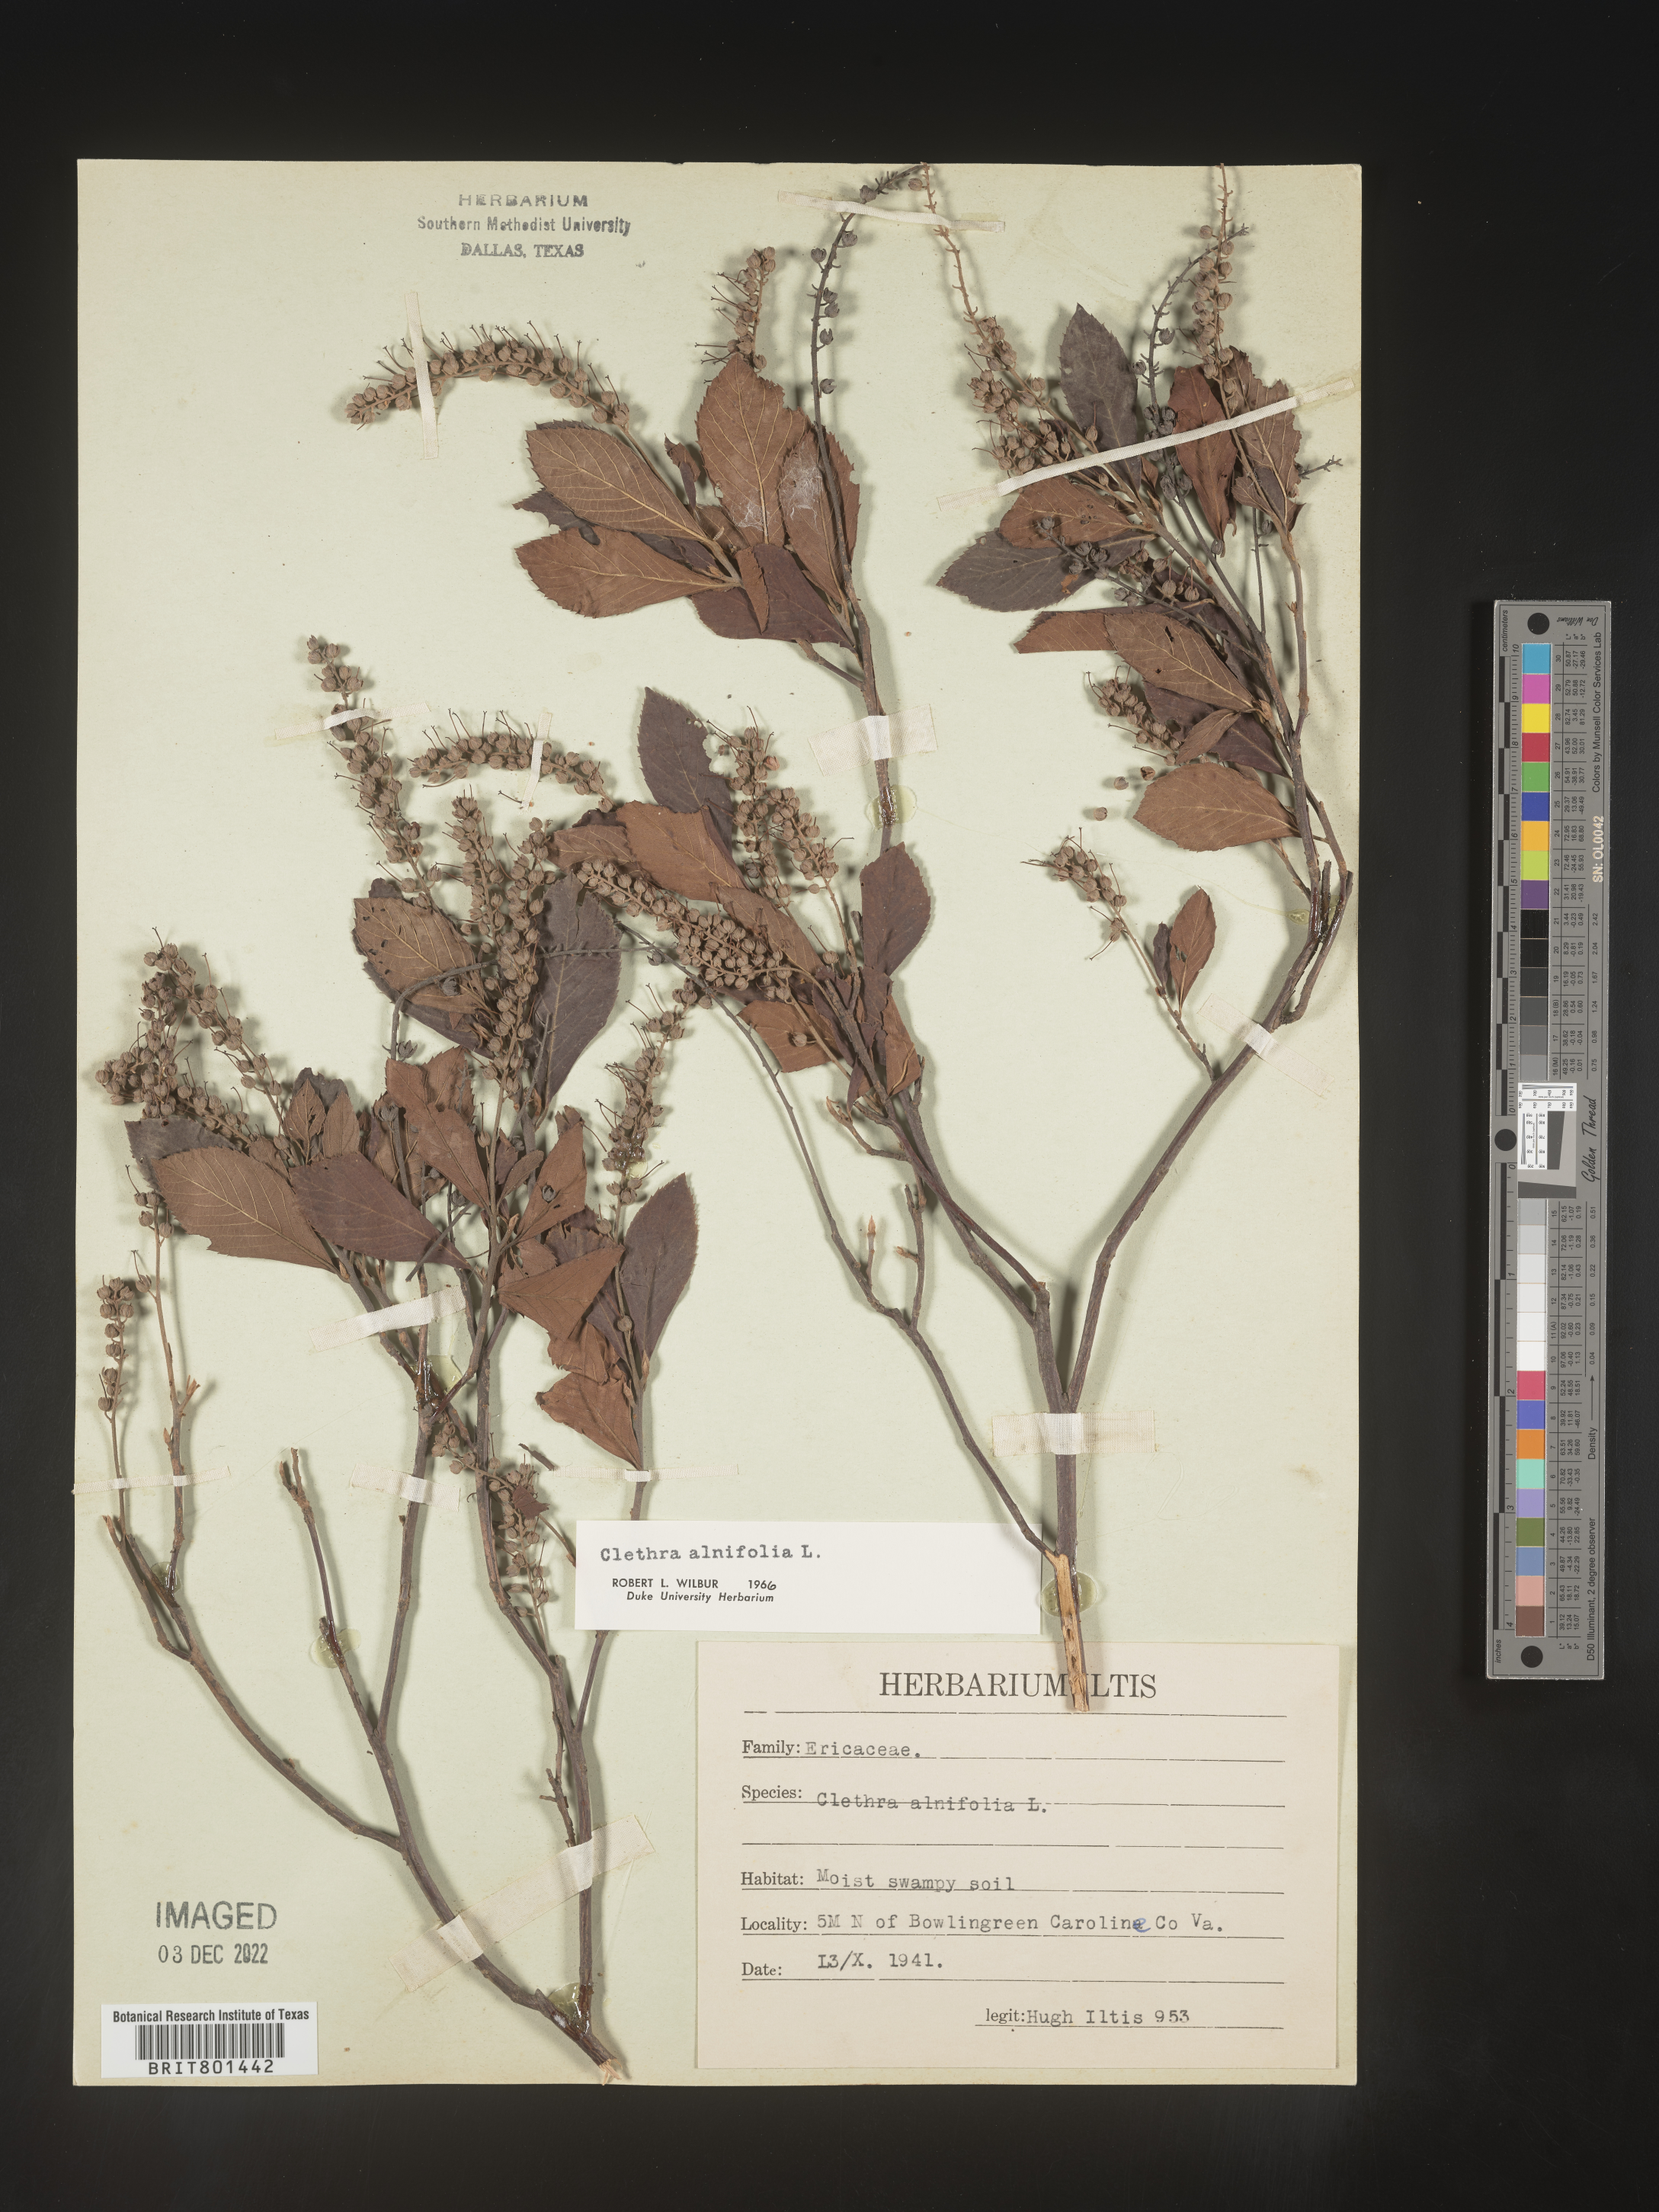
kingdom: Plantae
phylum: Tracheophyta
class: Magnoliopsida
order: Ericales
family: Clethraceae
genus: Clethra
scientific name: Clethra alnifolia
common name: Sweet pepperbush
